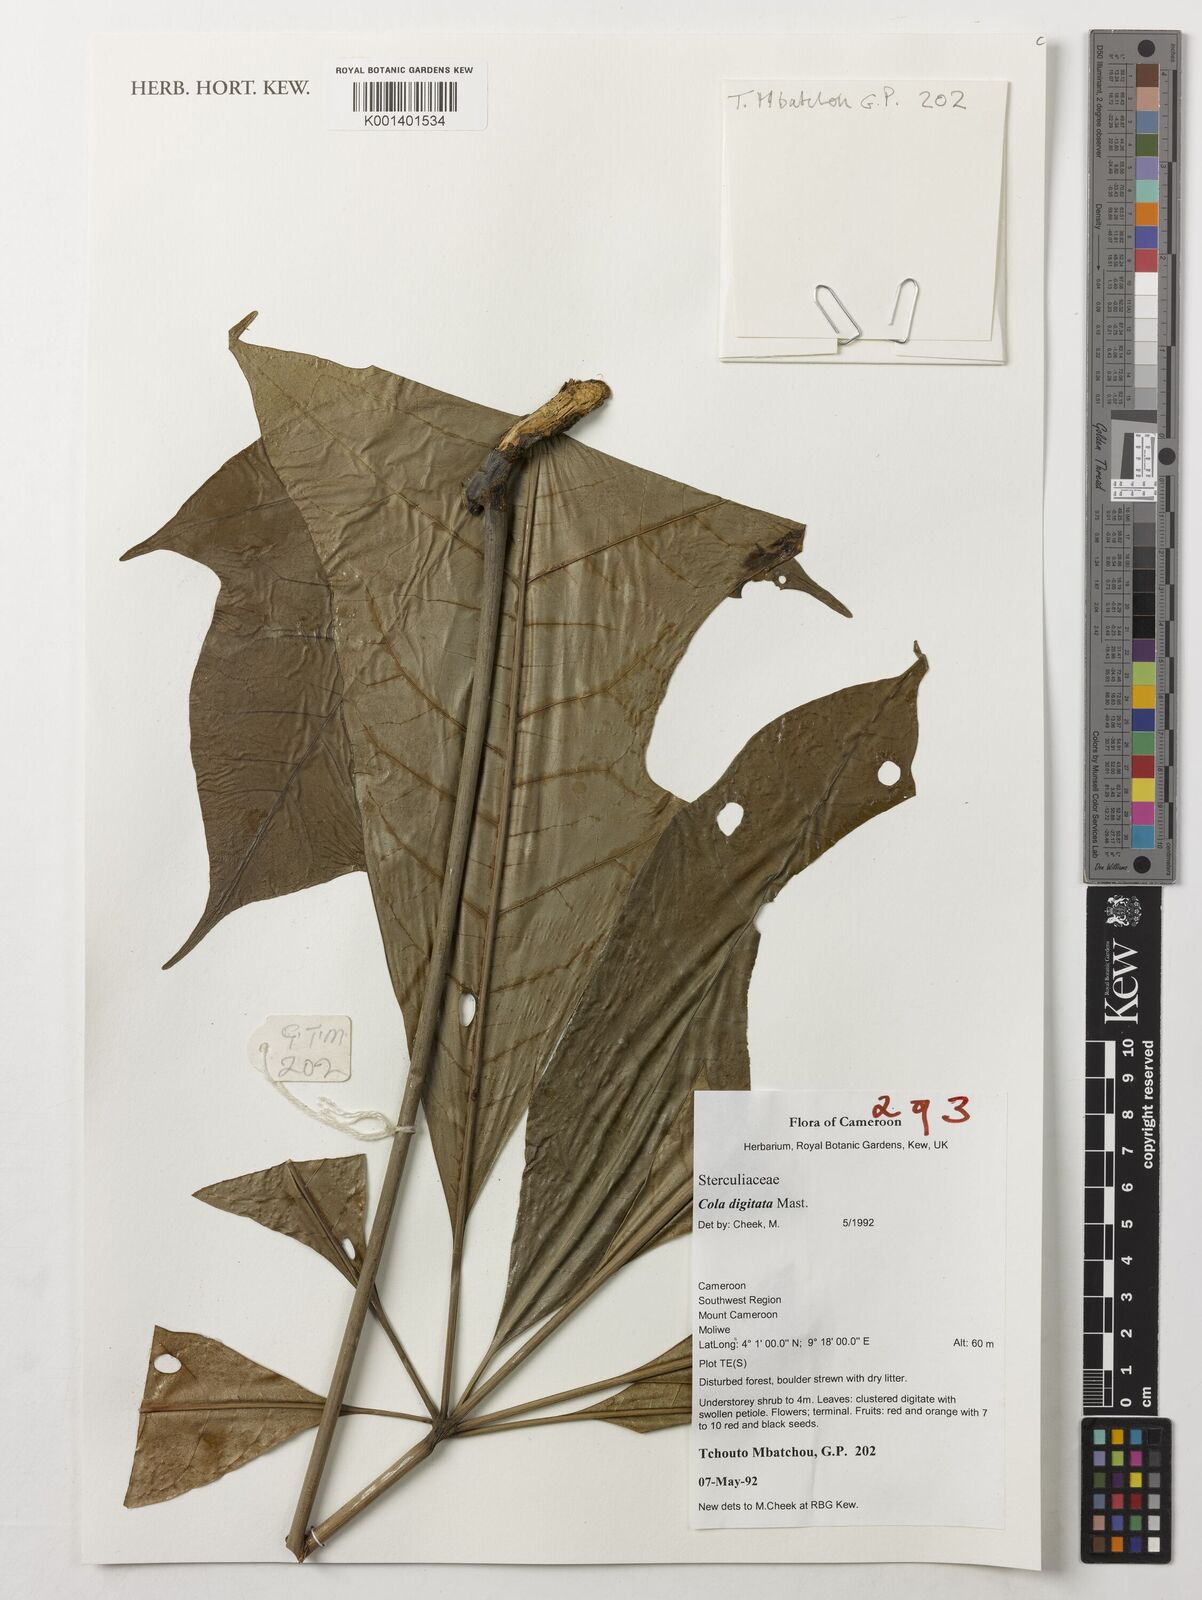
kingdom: Plantae
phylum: Tracheophyta
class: Magnoliopsida
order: Malvales
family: Malvaceae
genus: Cola
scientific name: Cola digitata
